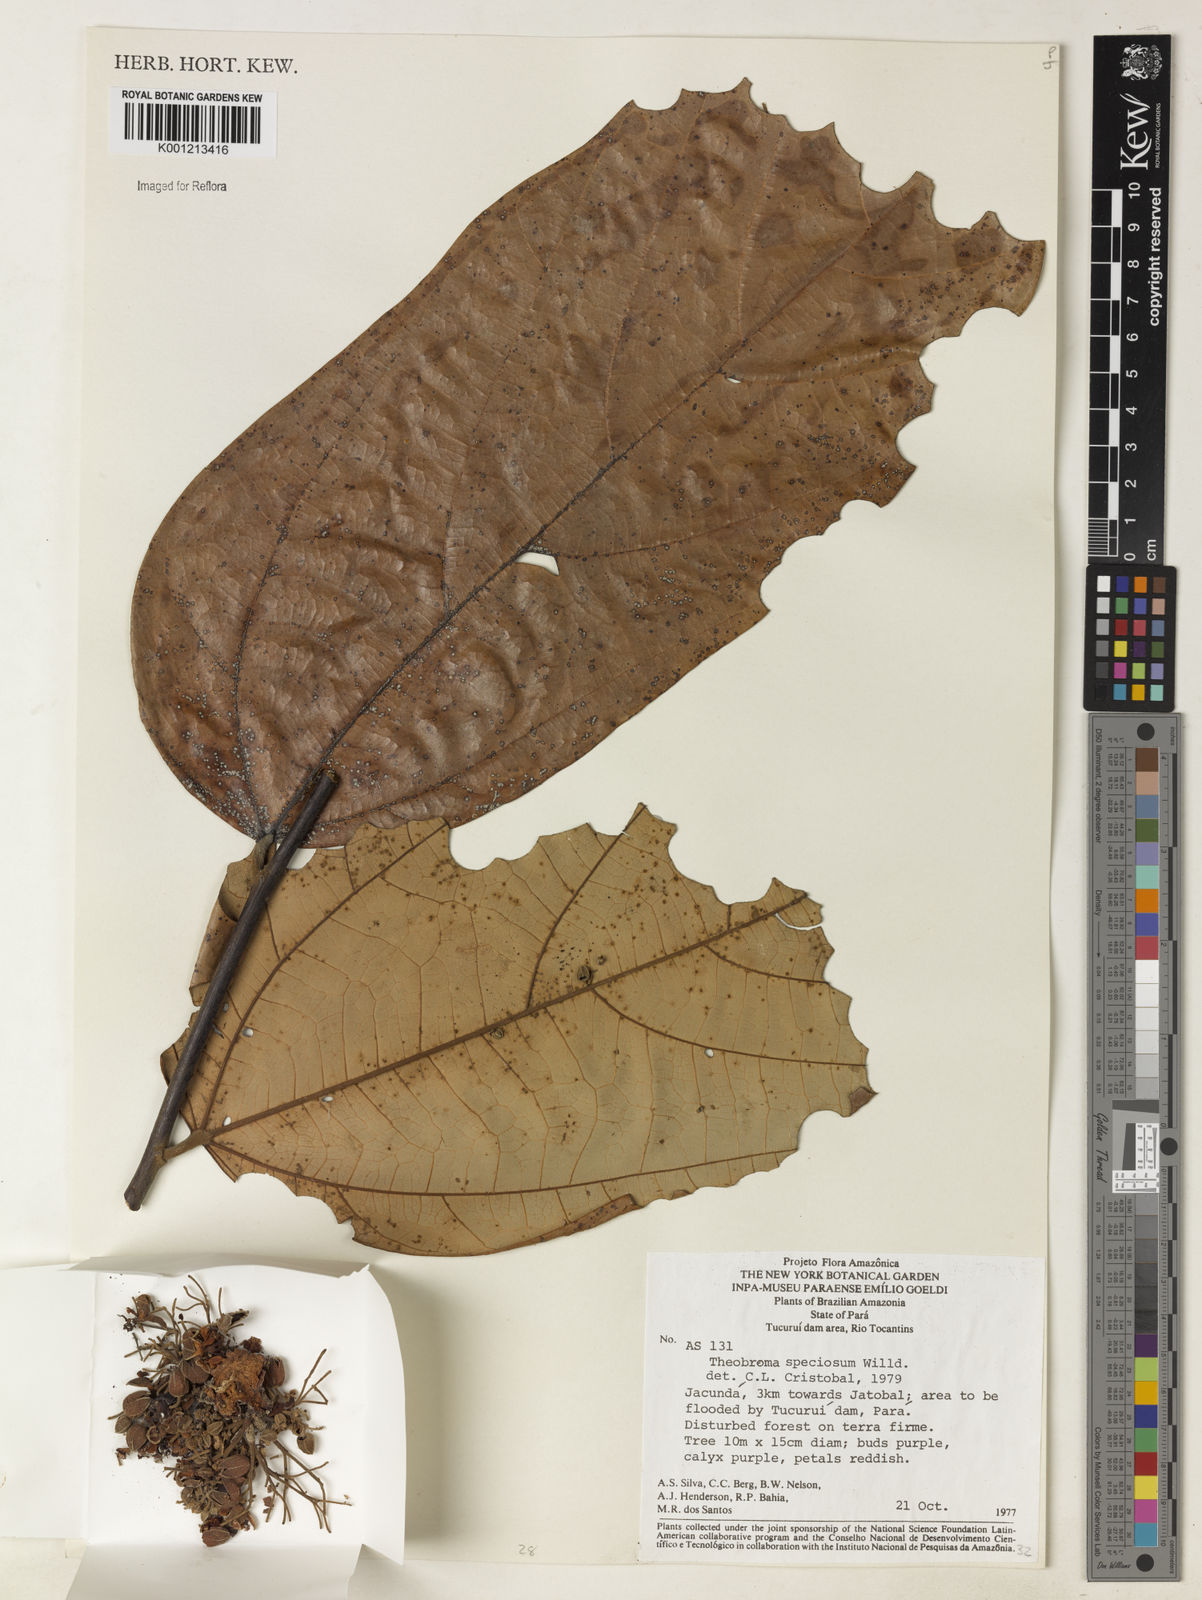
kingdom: Plantae
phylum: Tracheophyta
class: Magnoliopsida
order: Malvales
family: Malvaceae
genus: Theobroma
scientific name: Theobroma speciosum
